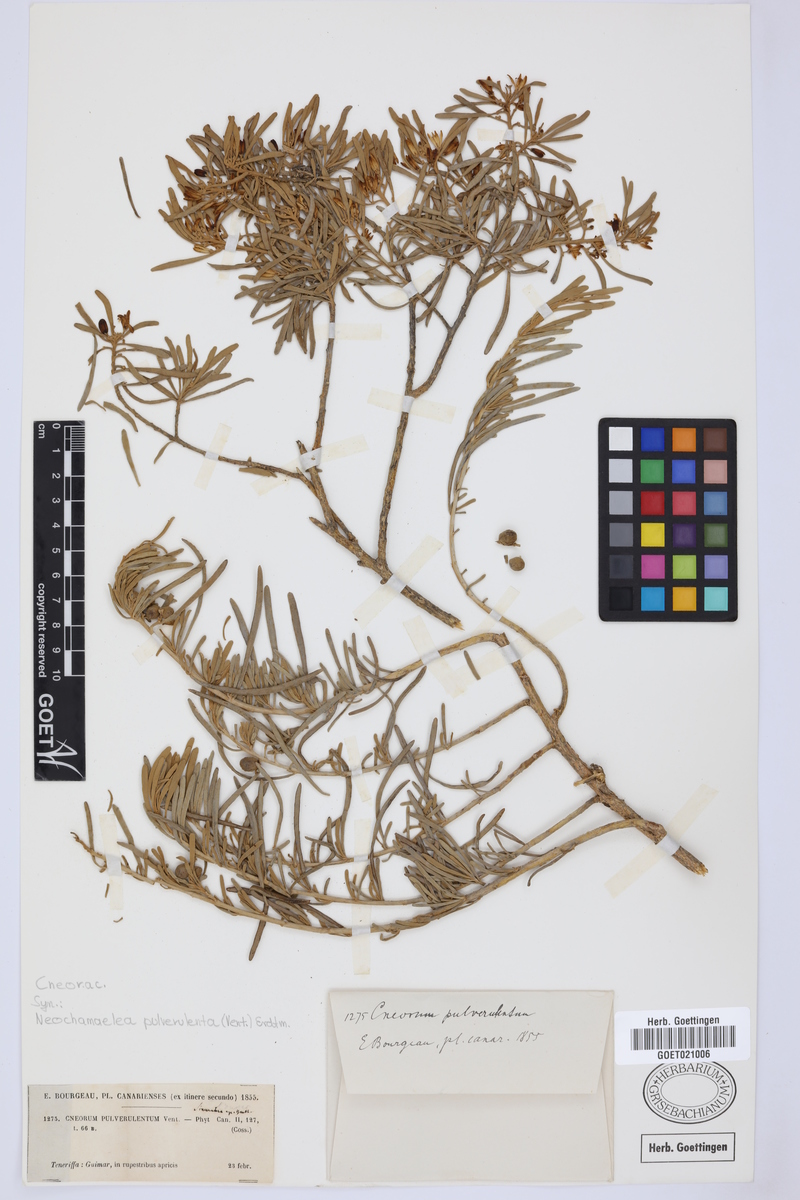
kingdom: Plantae
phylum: Tracheophyta
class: Magnoliopsida
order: Sapindales
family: Rutaceae
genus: Cneorum
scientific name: Cneorum pulverulentum
